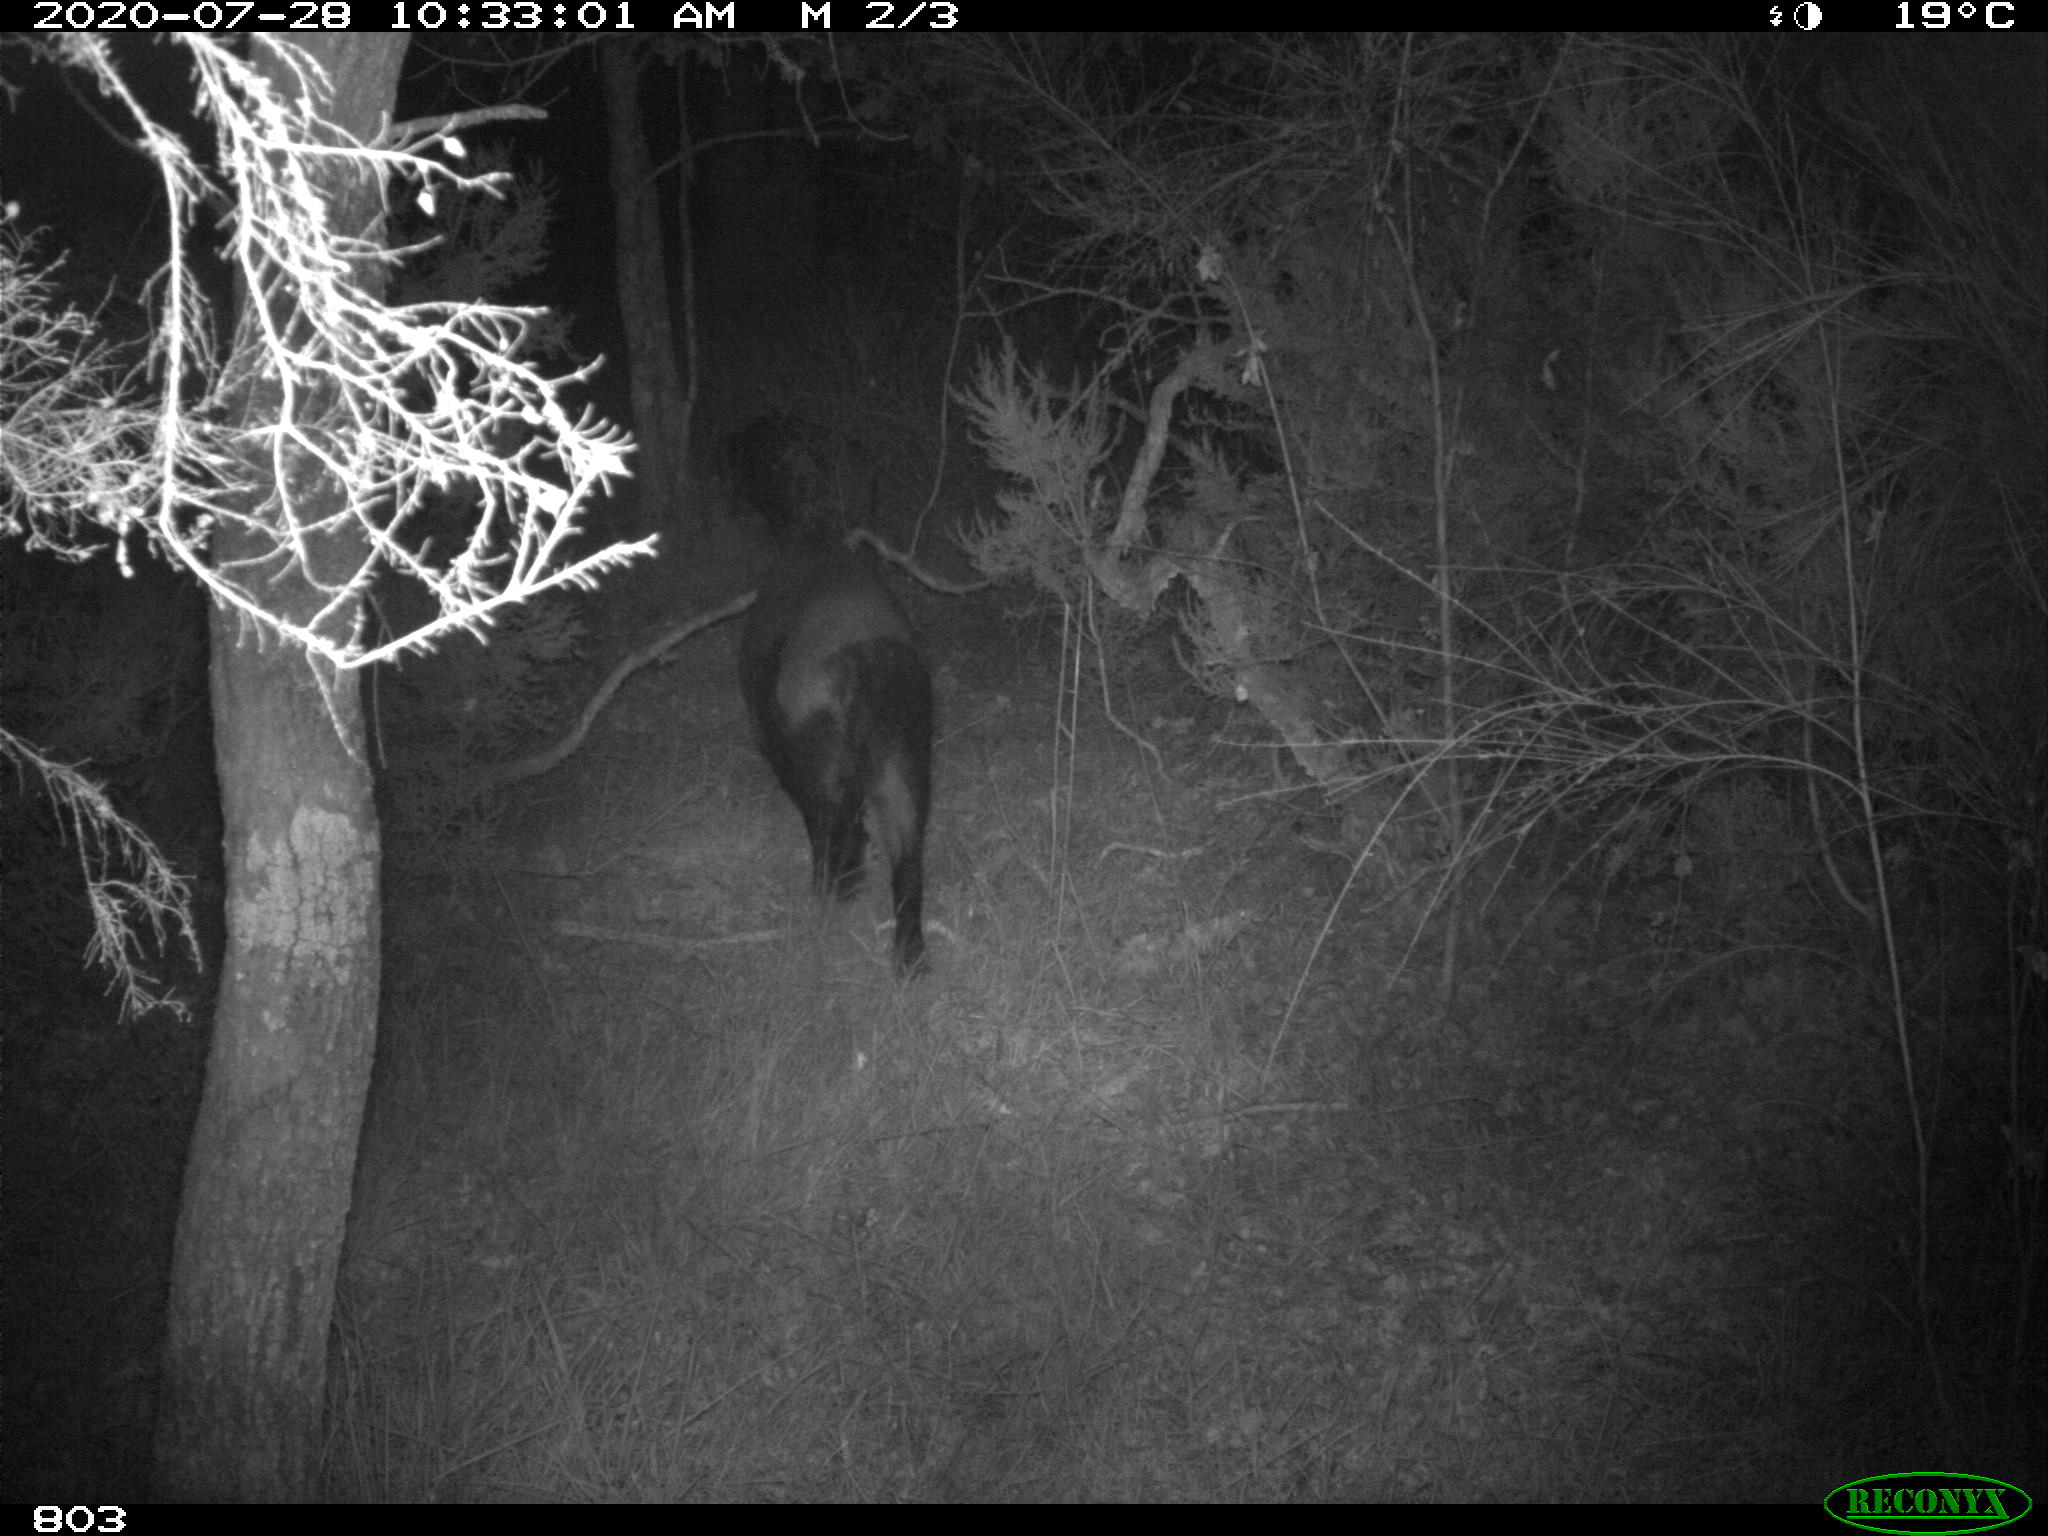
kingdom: Animalia
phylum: Chordata
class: Mammalia
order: Artiodactyla
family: Suidae
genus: Sus
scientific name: Sus scrofa
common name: Wild boar
